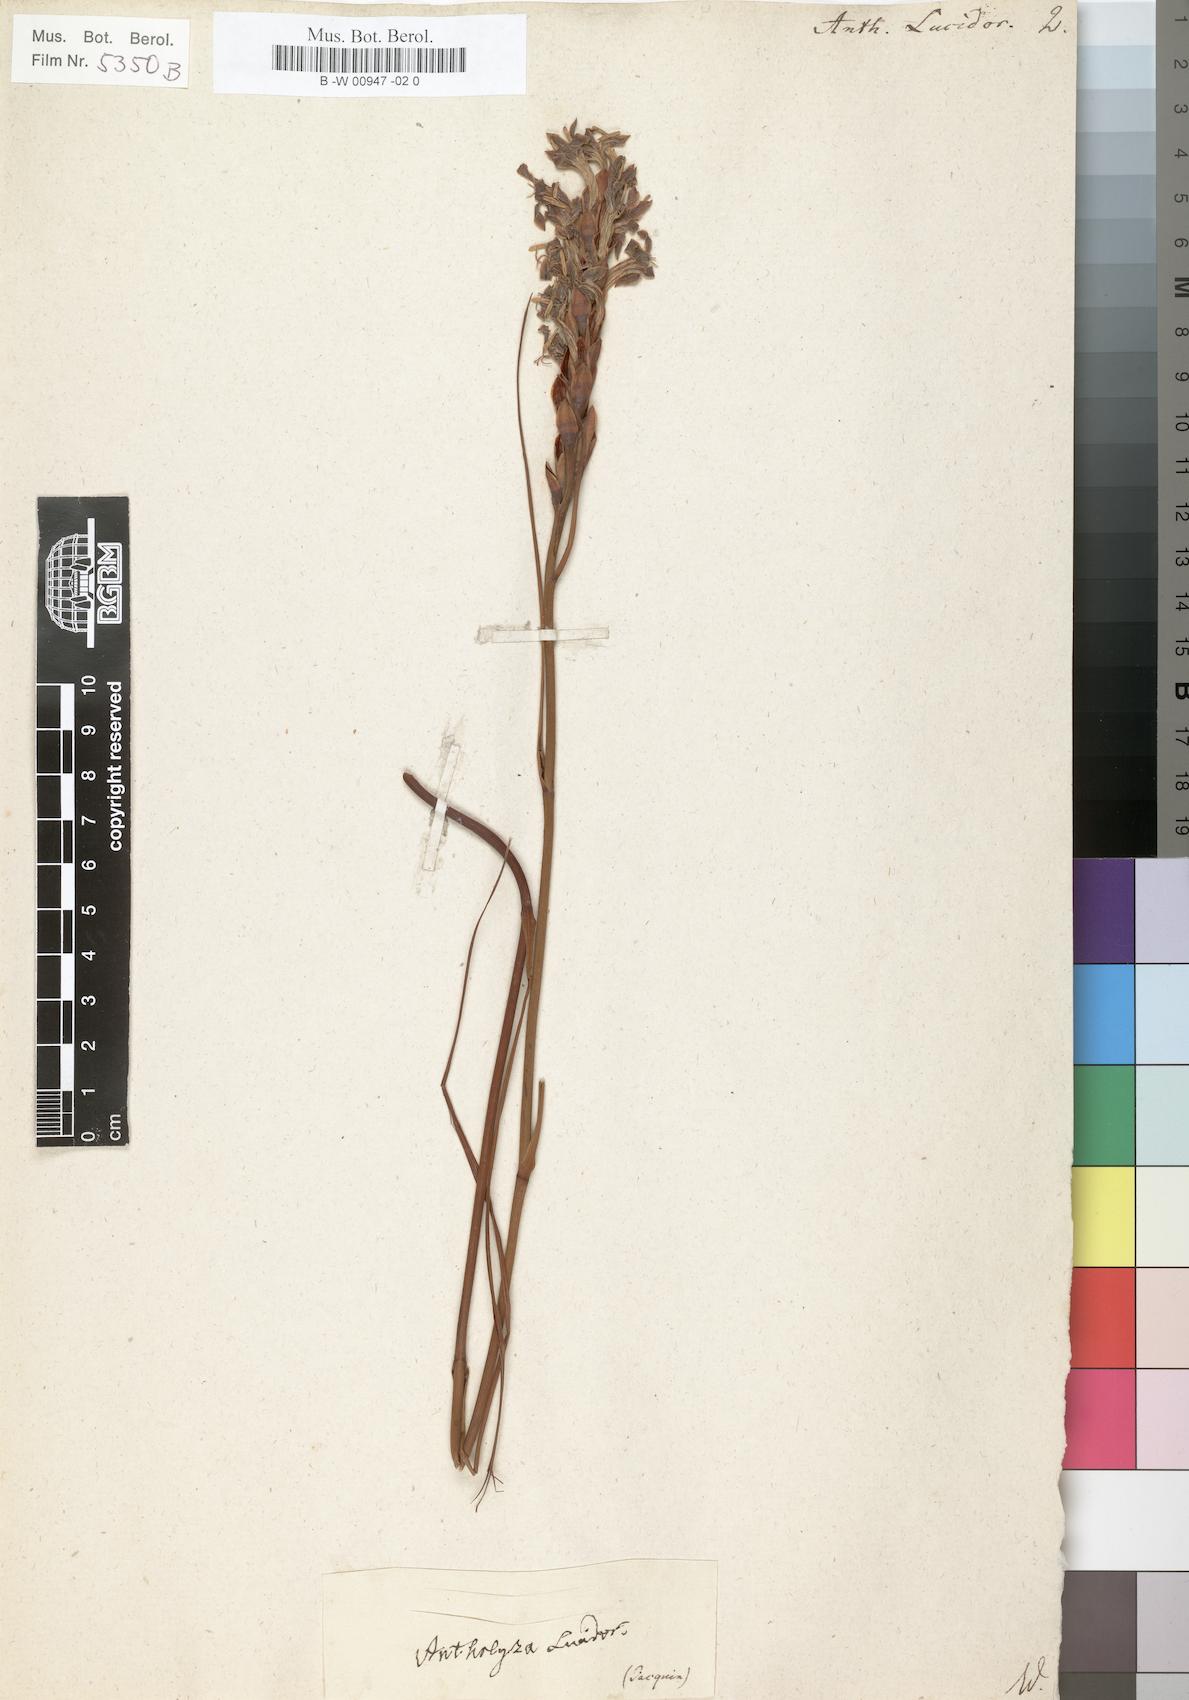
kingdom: Plantae
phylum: Tracheophyta
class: Liliopsida
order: Asparagales
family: Iridaceae
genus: Tritoniopsis
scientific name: Tritoniopsis triticea
